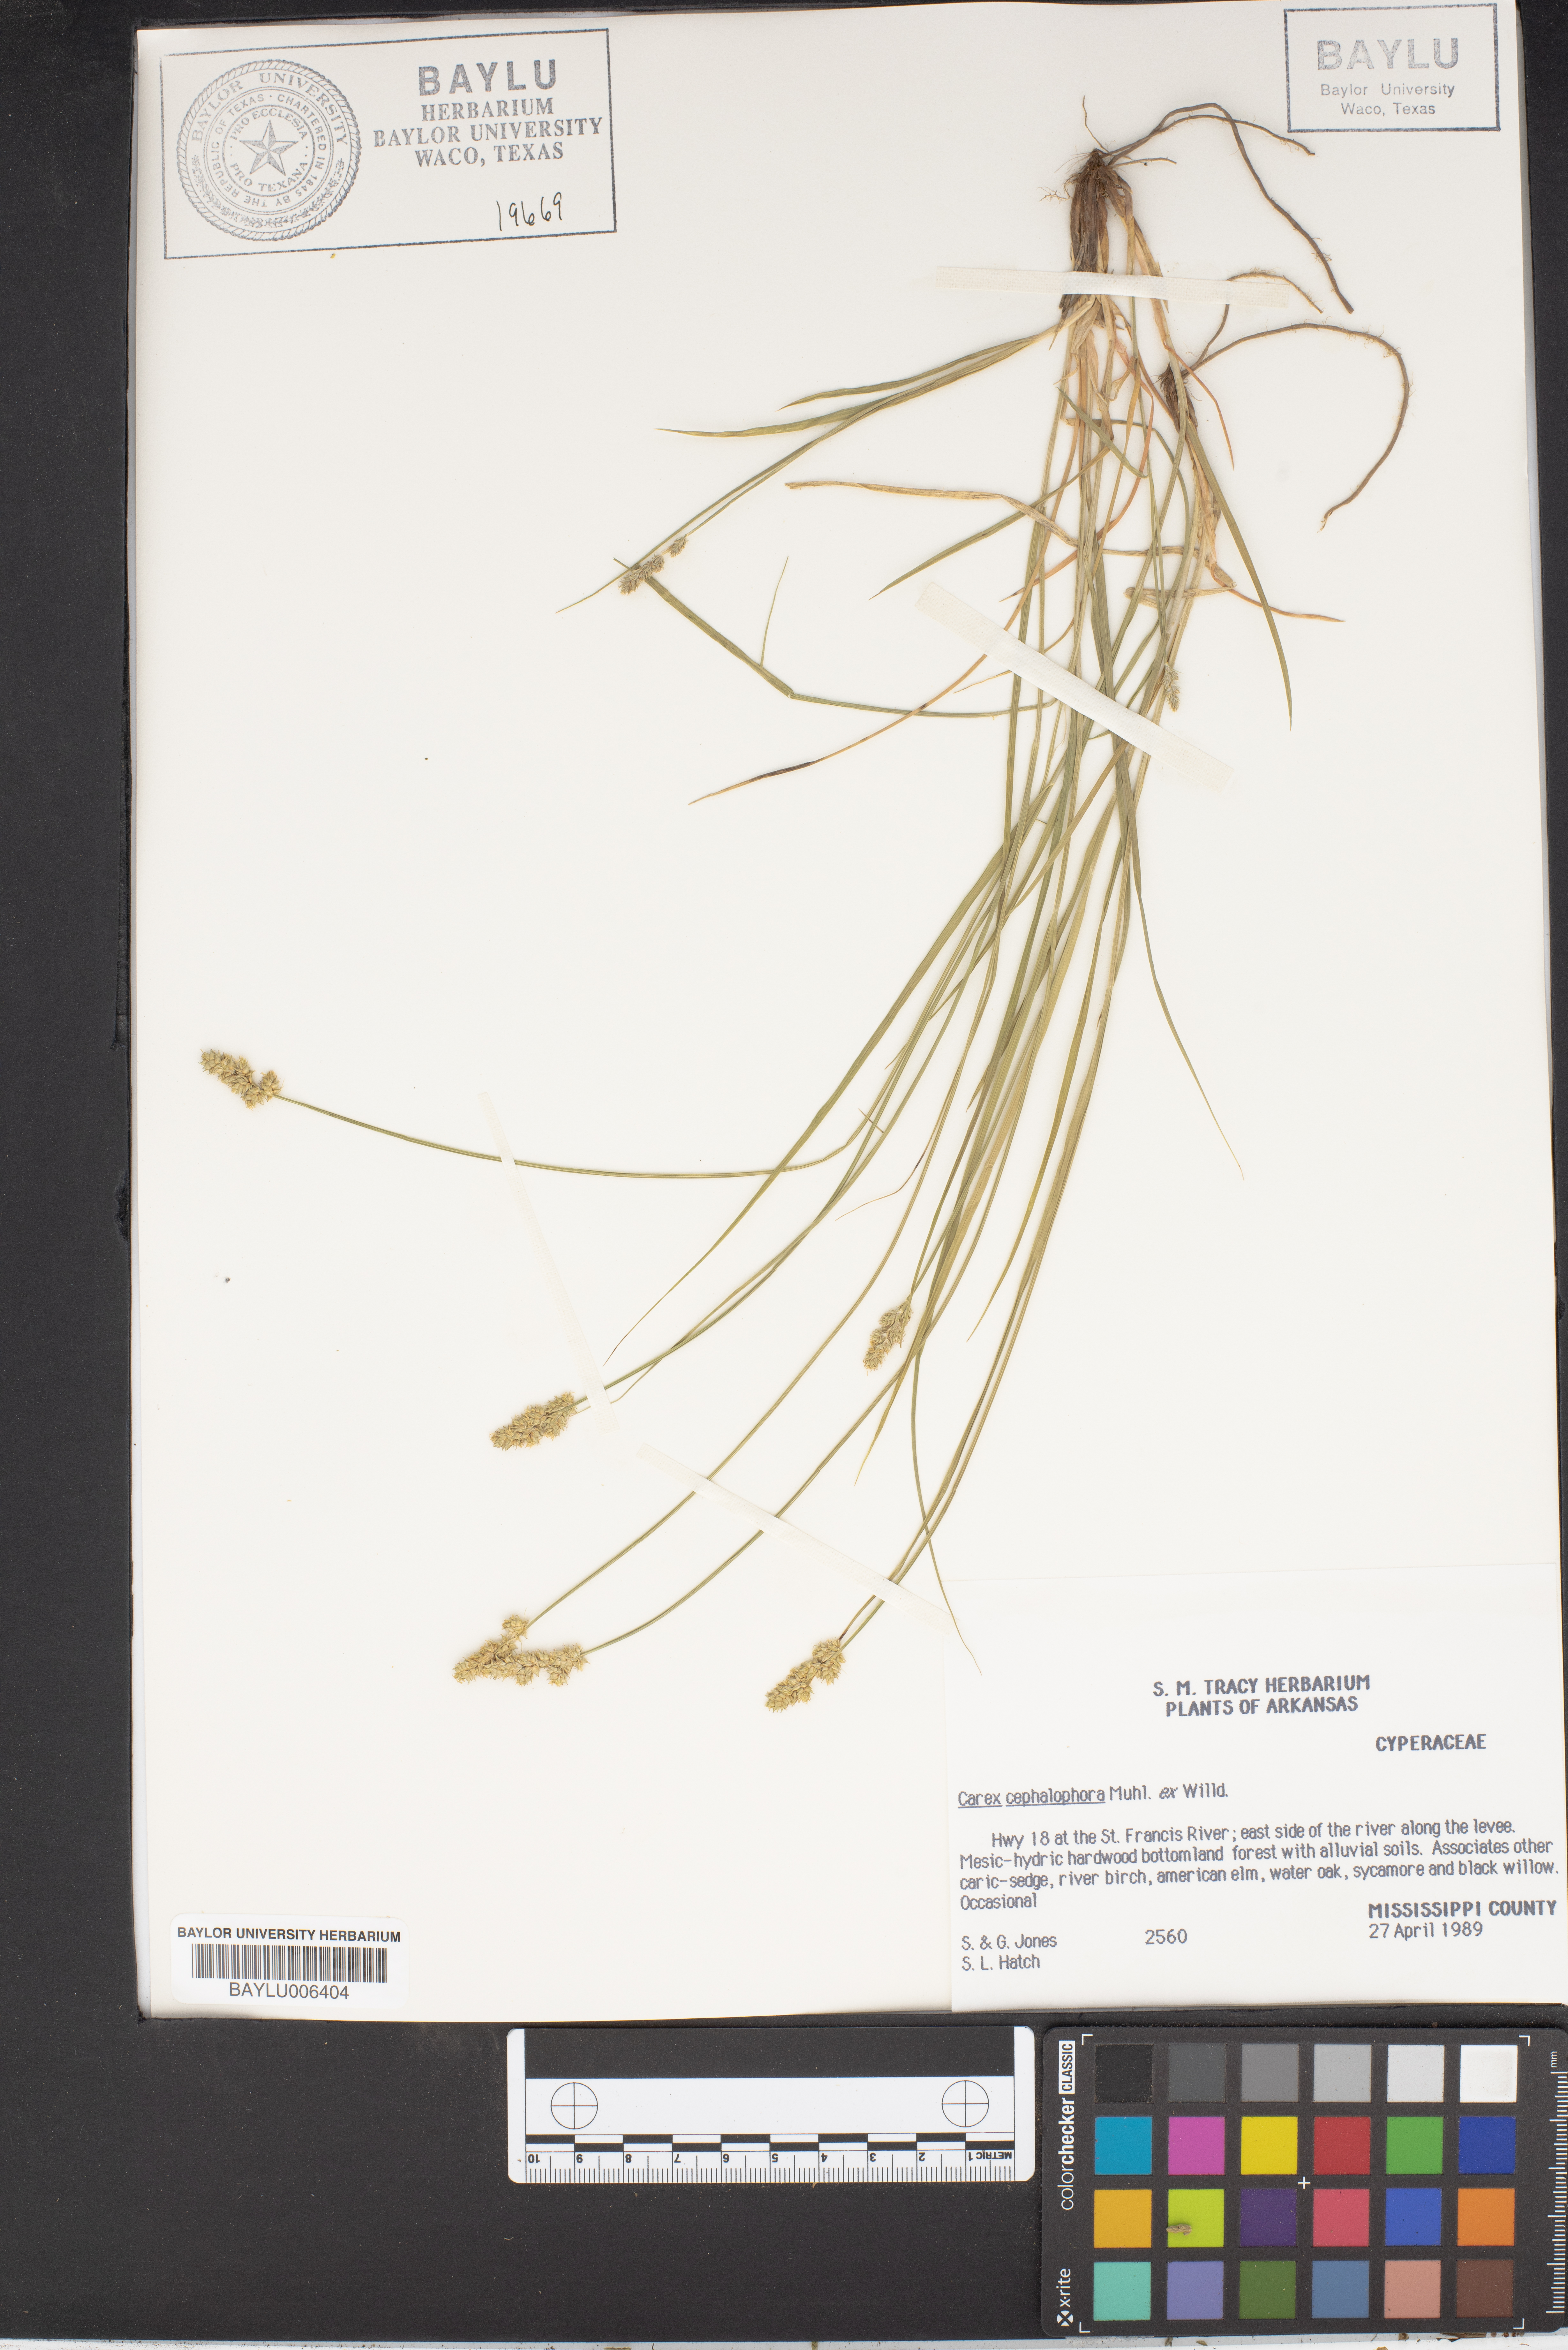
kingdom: Plantae
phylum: Tracheophyta
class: Liliopsida
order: Poales
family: Cyperaceae
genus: Carex
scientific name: Carex cephalophora
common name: Oval-headed sedge
